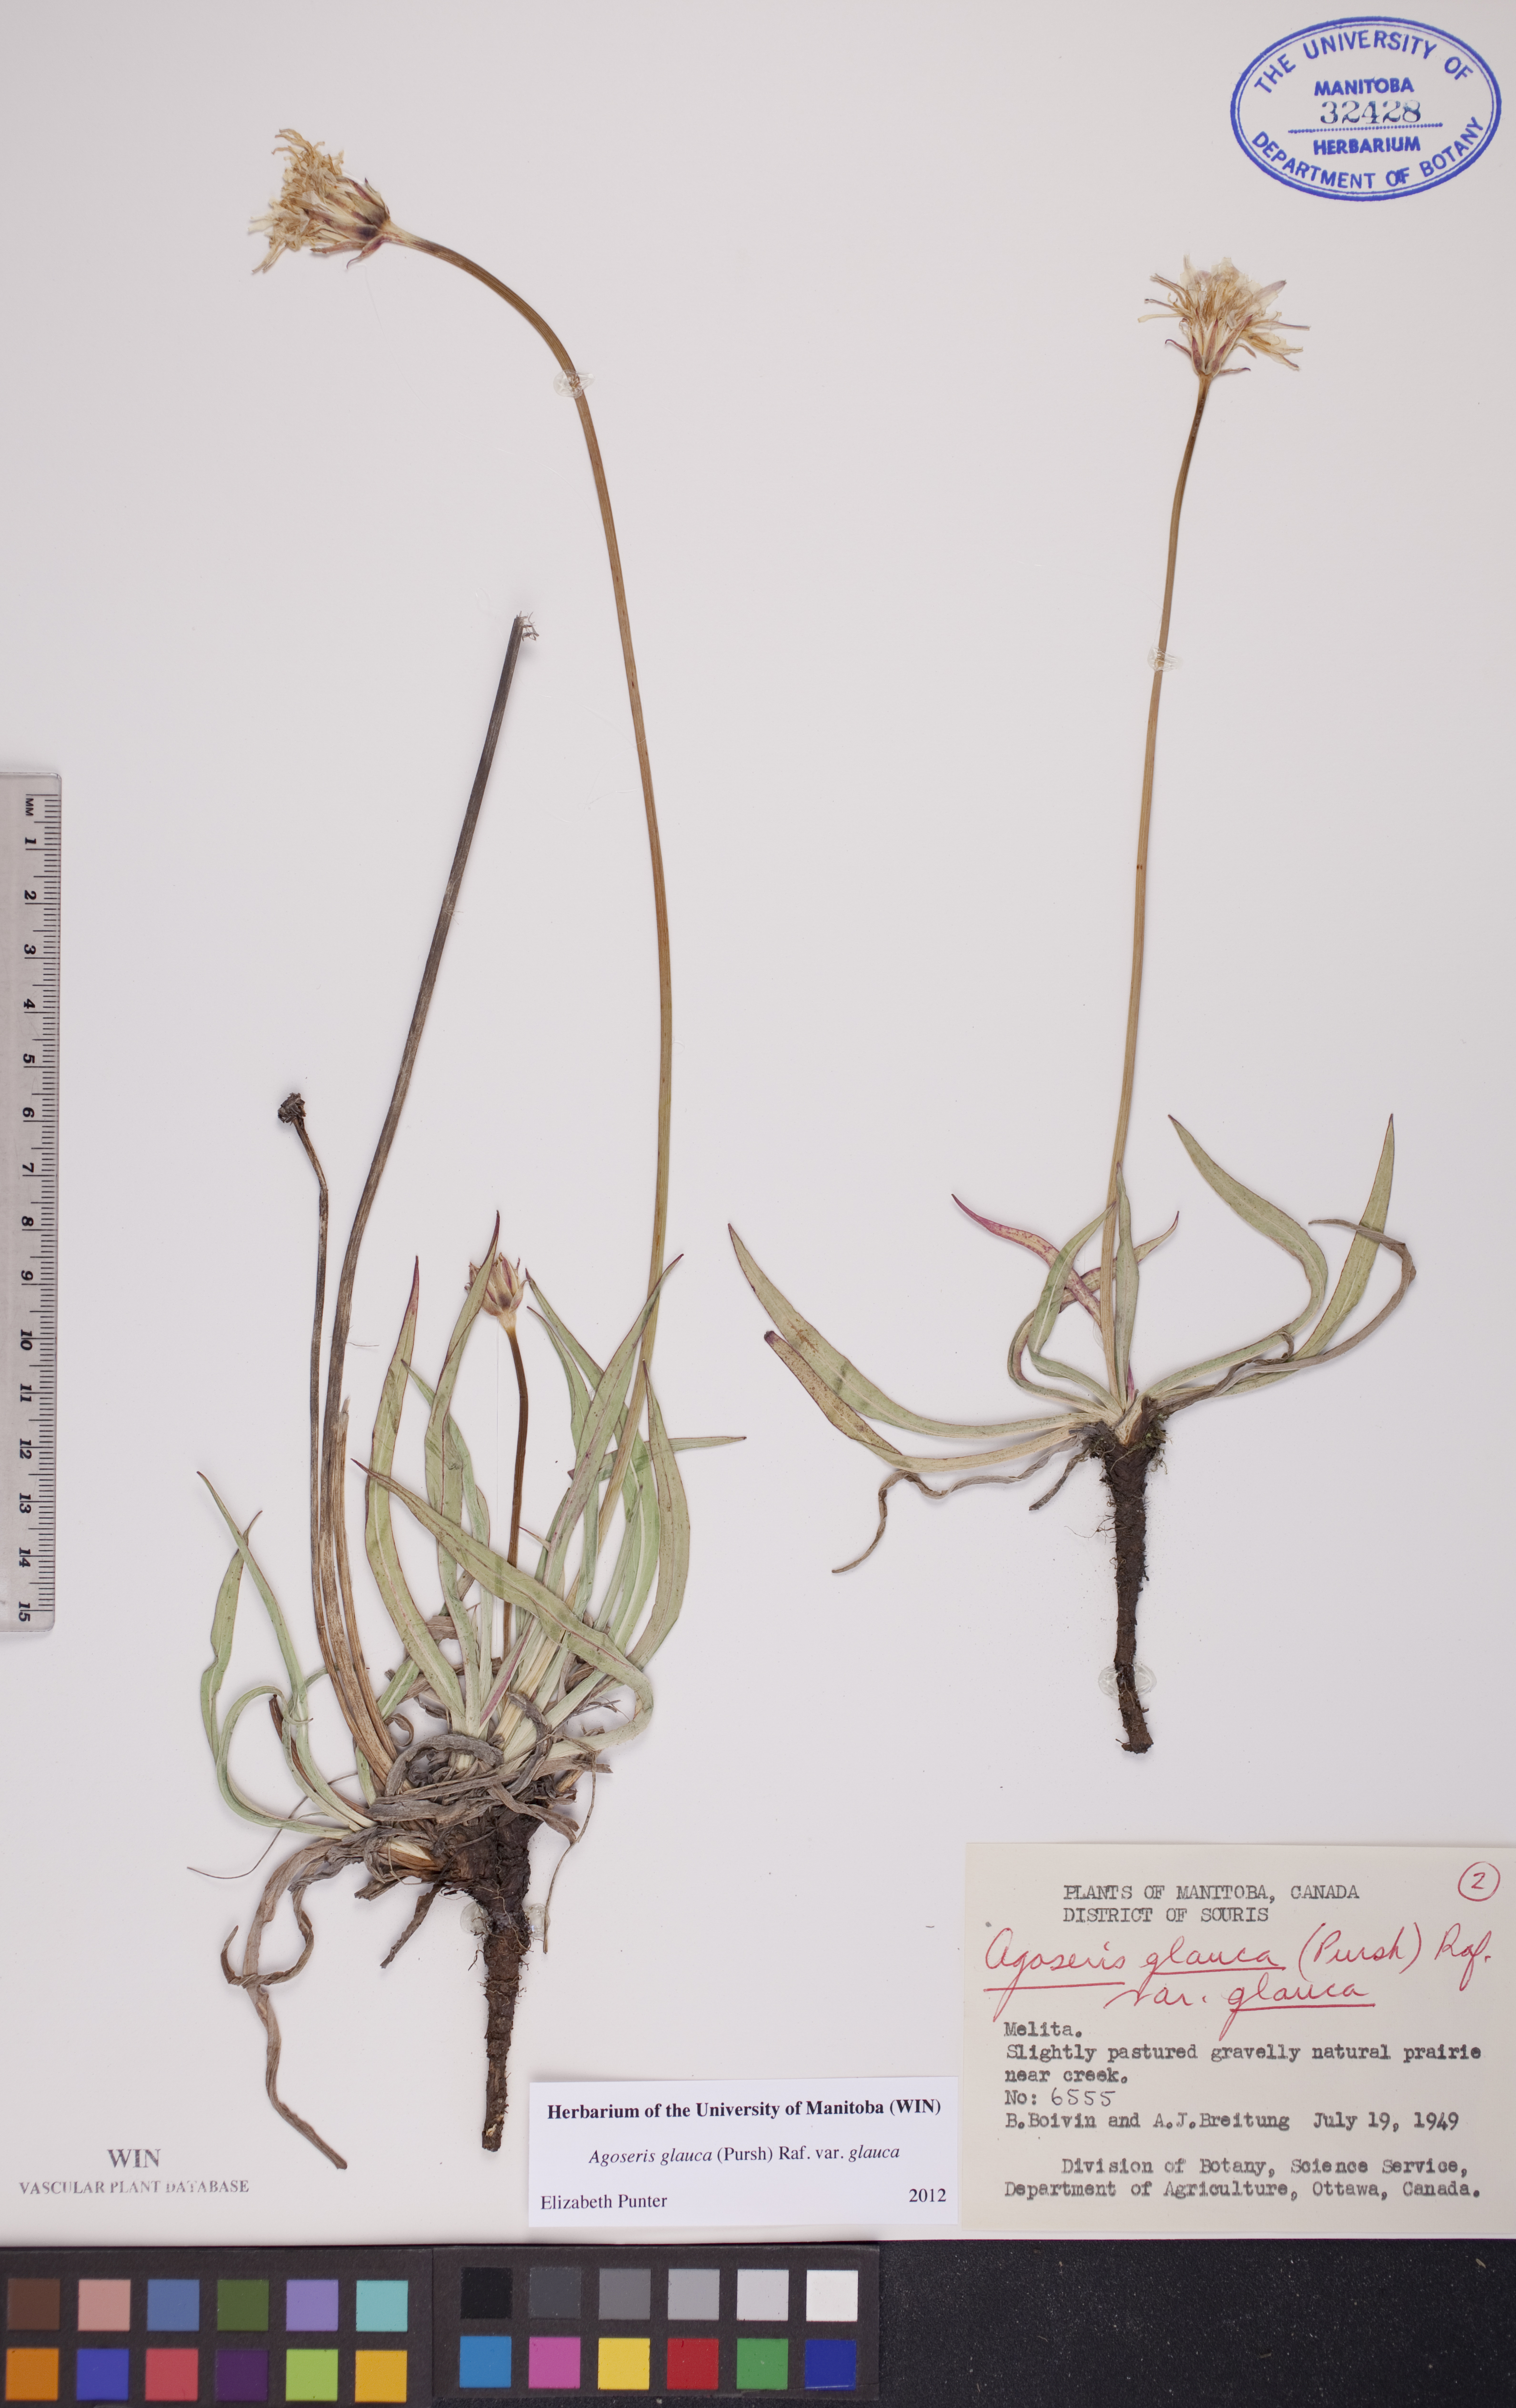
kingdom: Plantae
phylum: Tracheophyta
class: Magnoliopsida
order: Asterales
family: Asteraceae
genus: Agoseris
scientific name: Agoseris glauca
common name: Prairie agoseris
